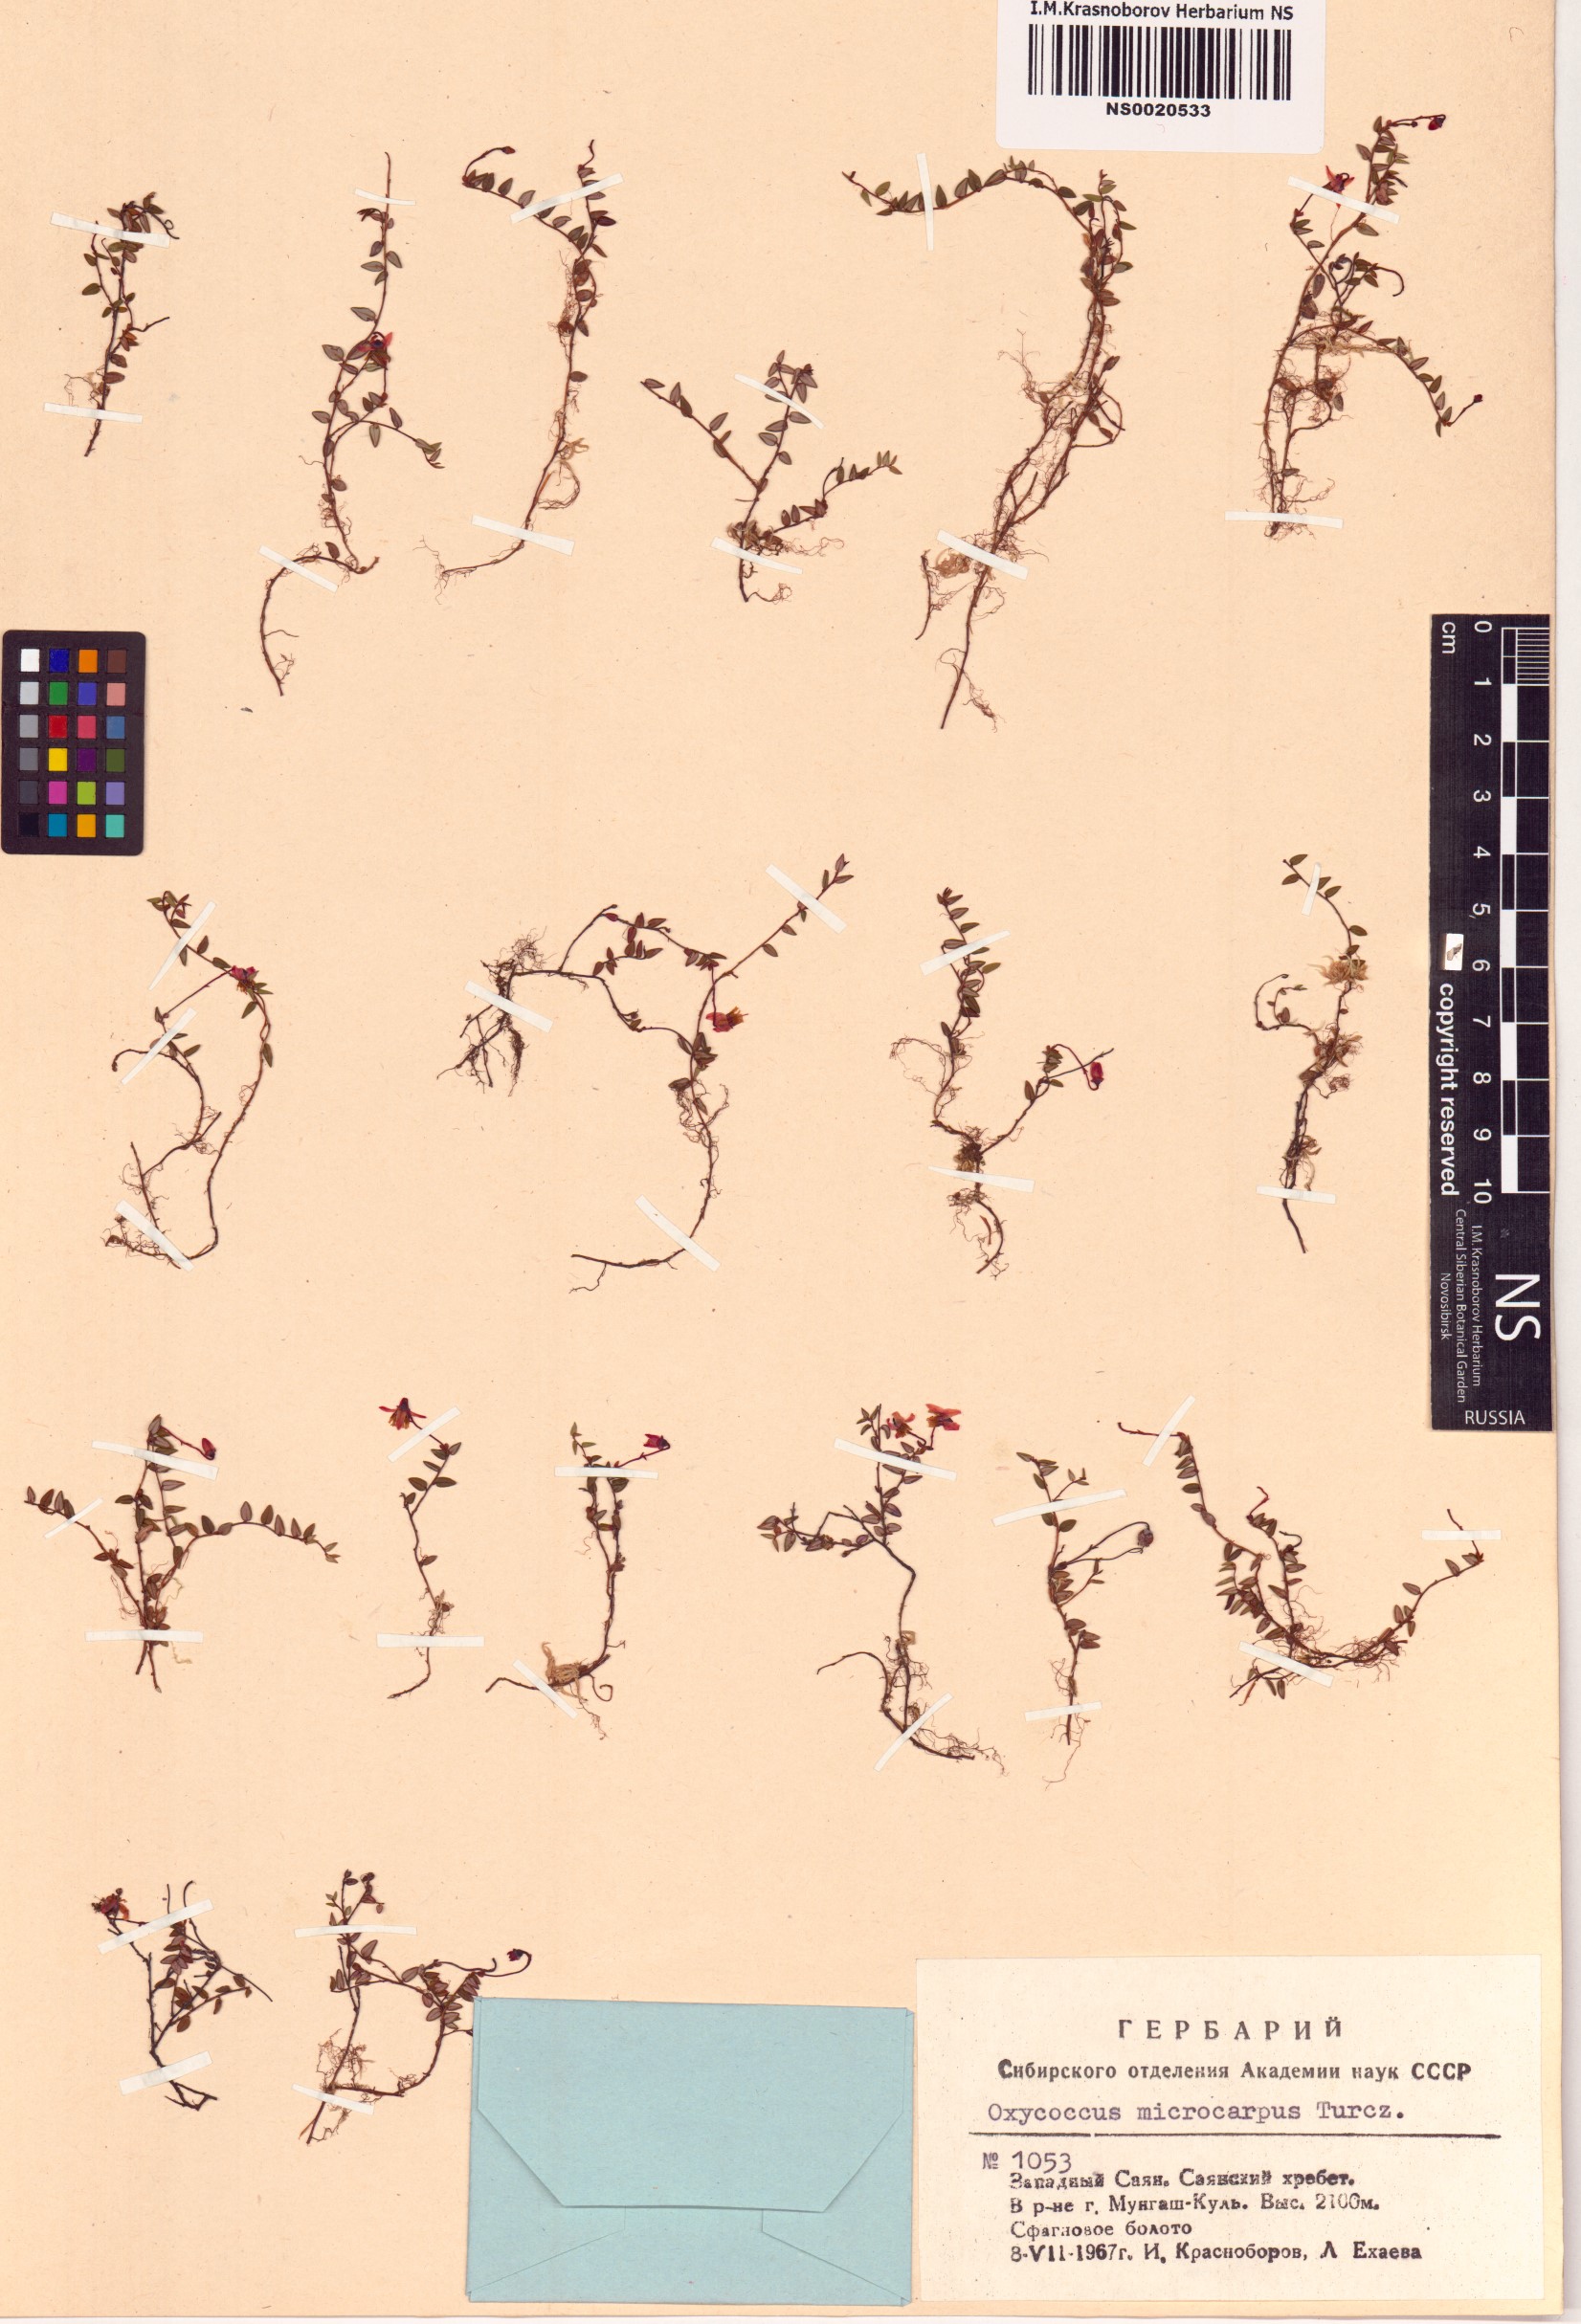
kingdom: Plantae
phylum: Tracheophyta
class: Magnoliopsida
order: Ericales
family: Ericaceae
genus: Vaccinium
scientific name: Vaccinium microcarpum
